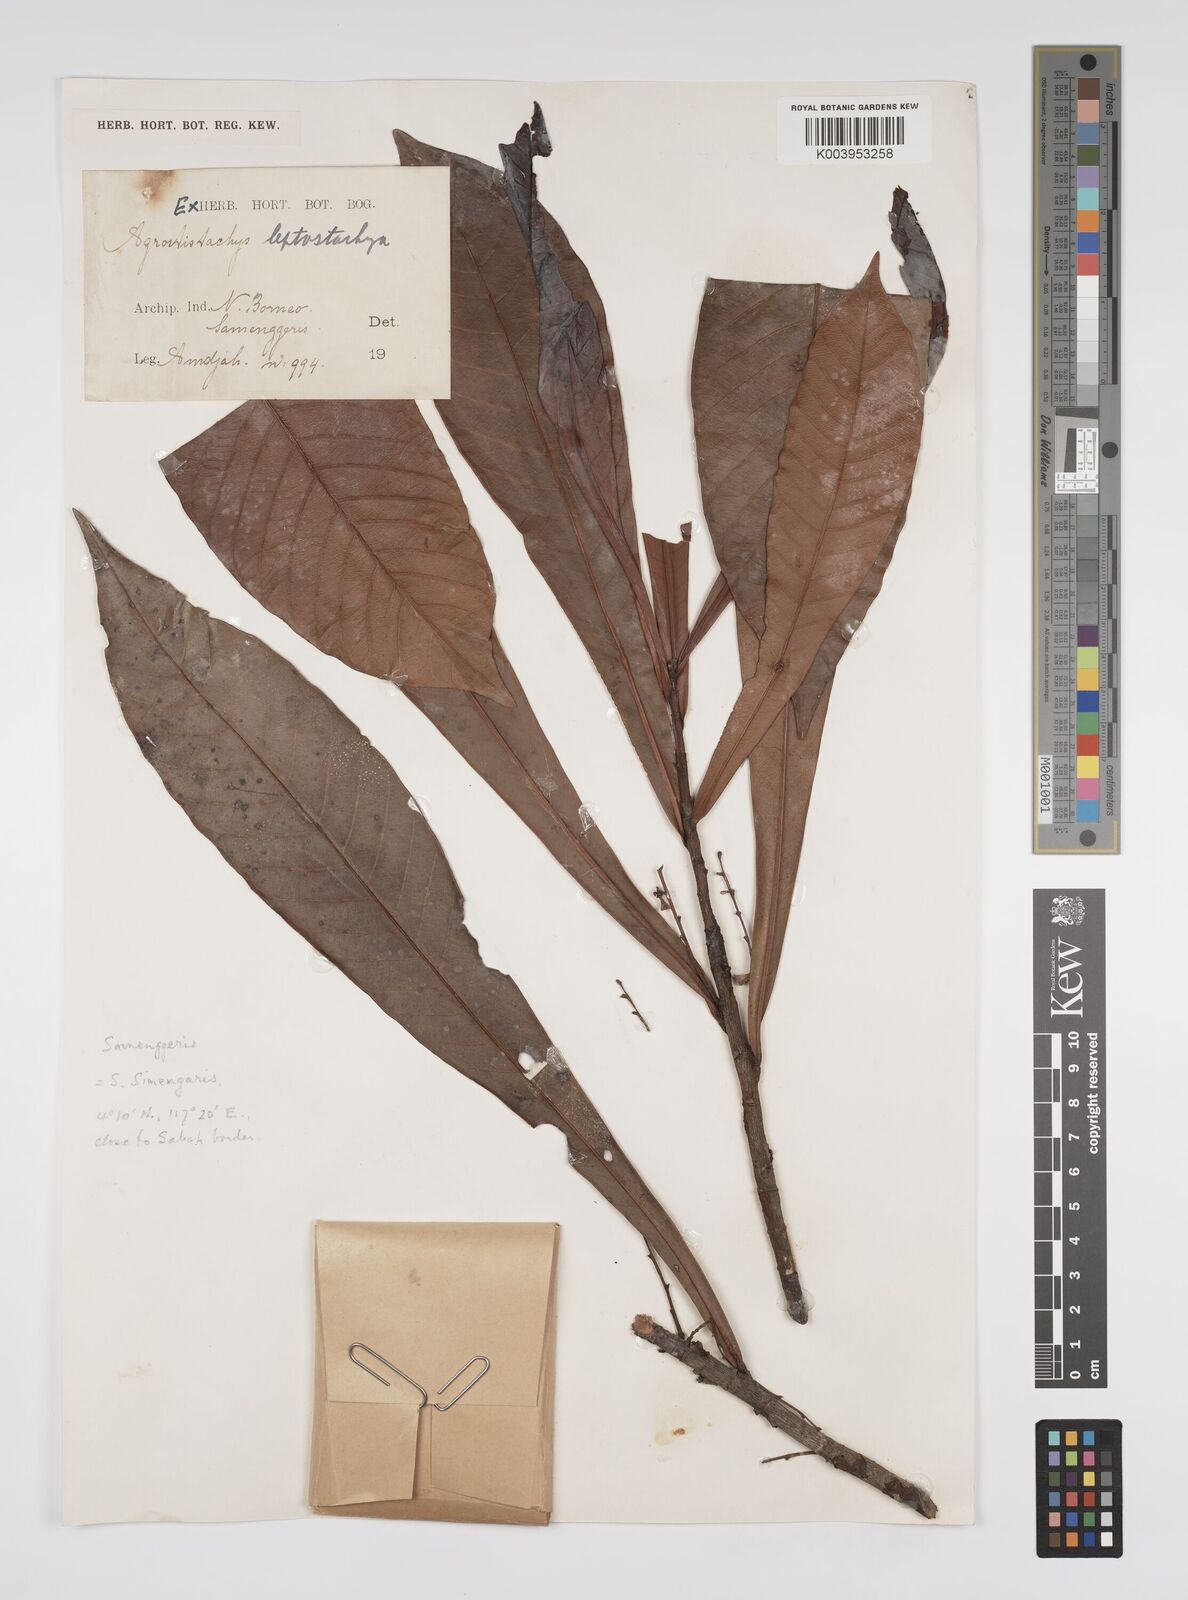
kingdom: Plantae
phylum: Tracheophyta
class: Magnoliopsida
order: Malpighiales
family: Euphorbiaceae
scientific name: Euphorbiaceae
